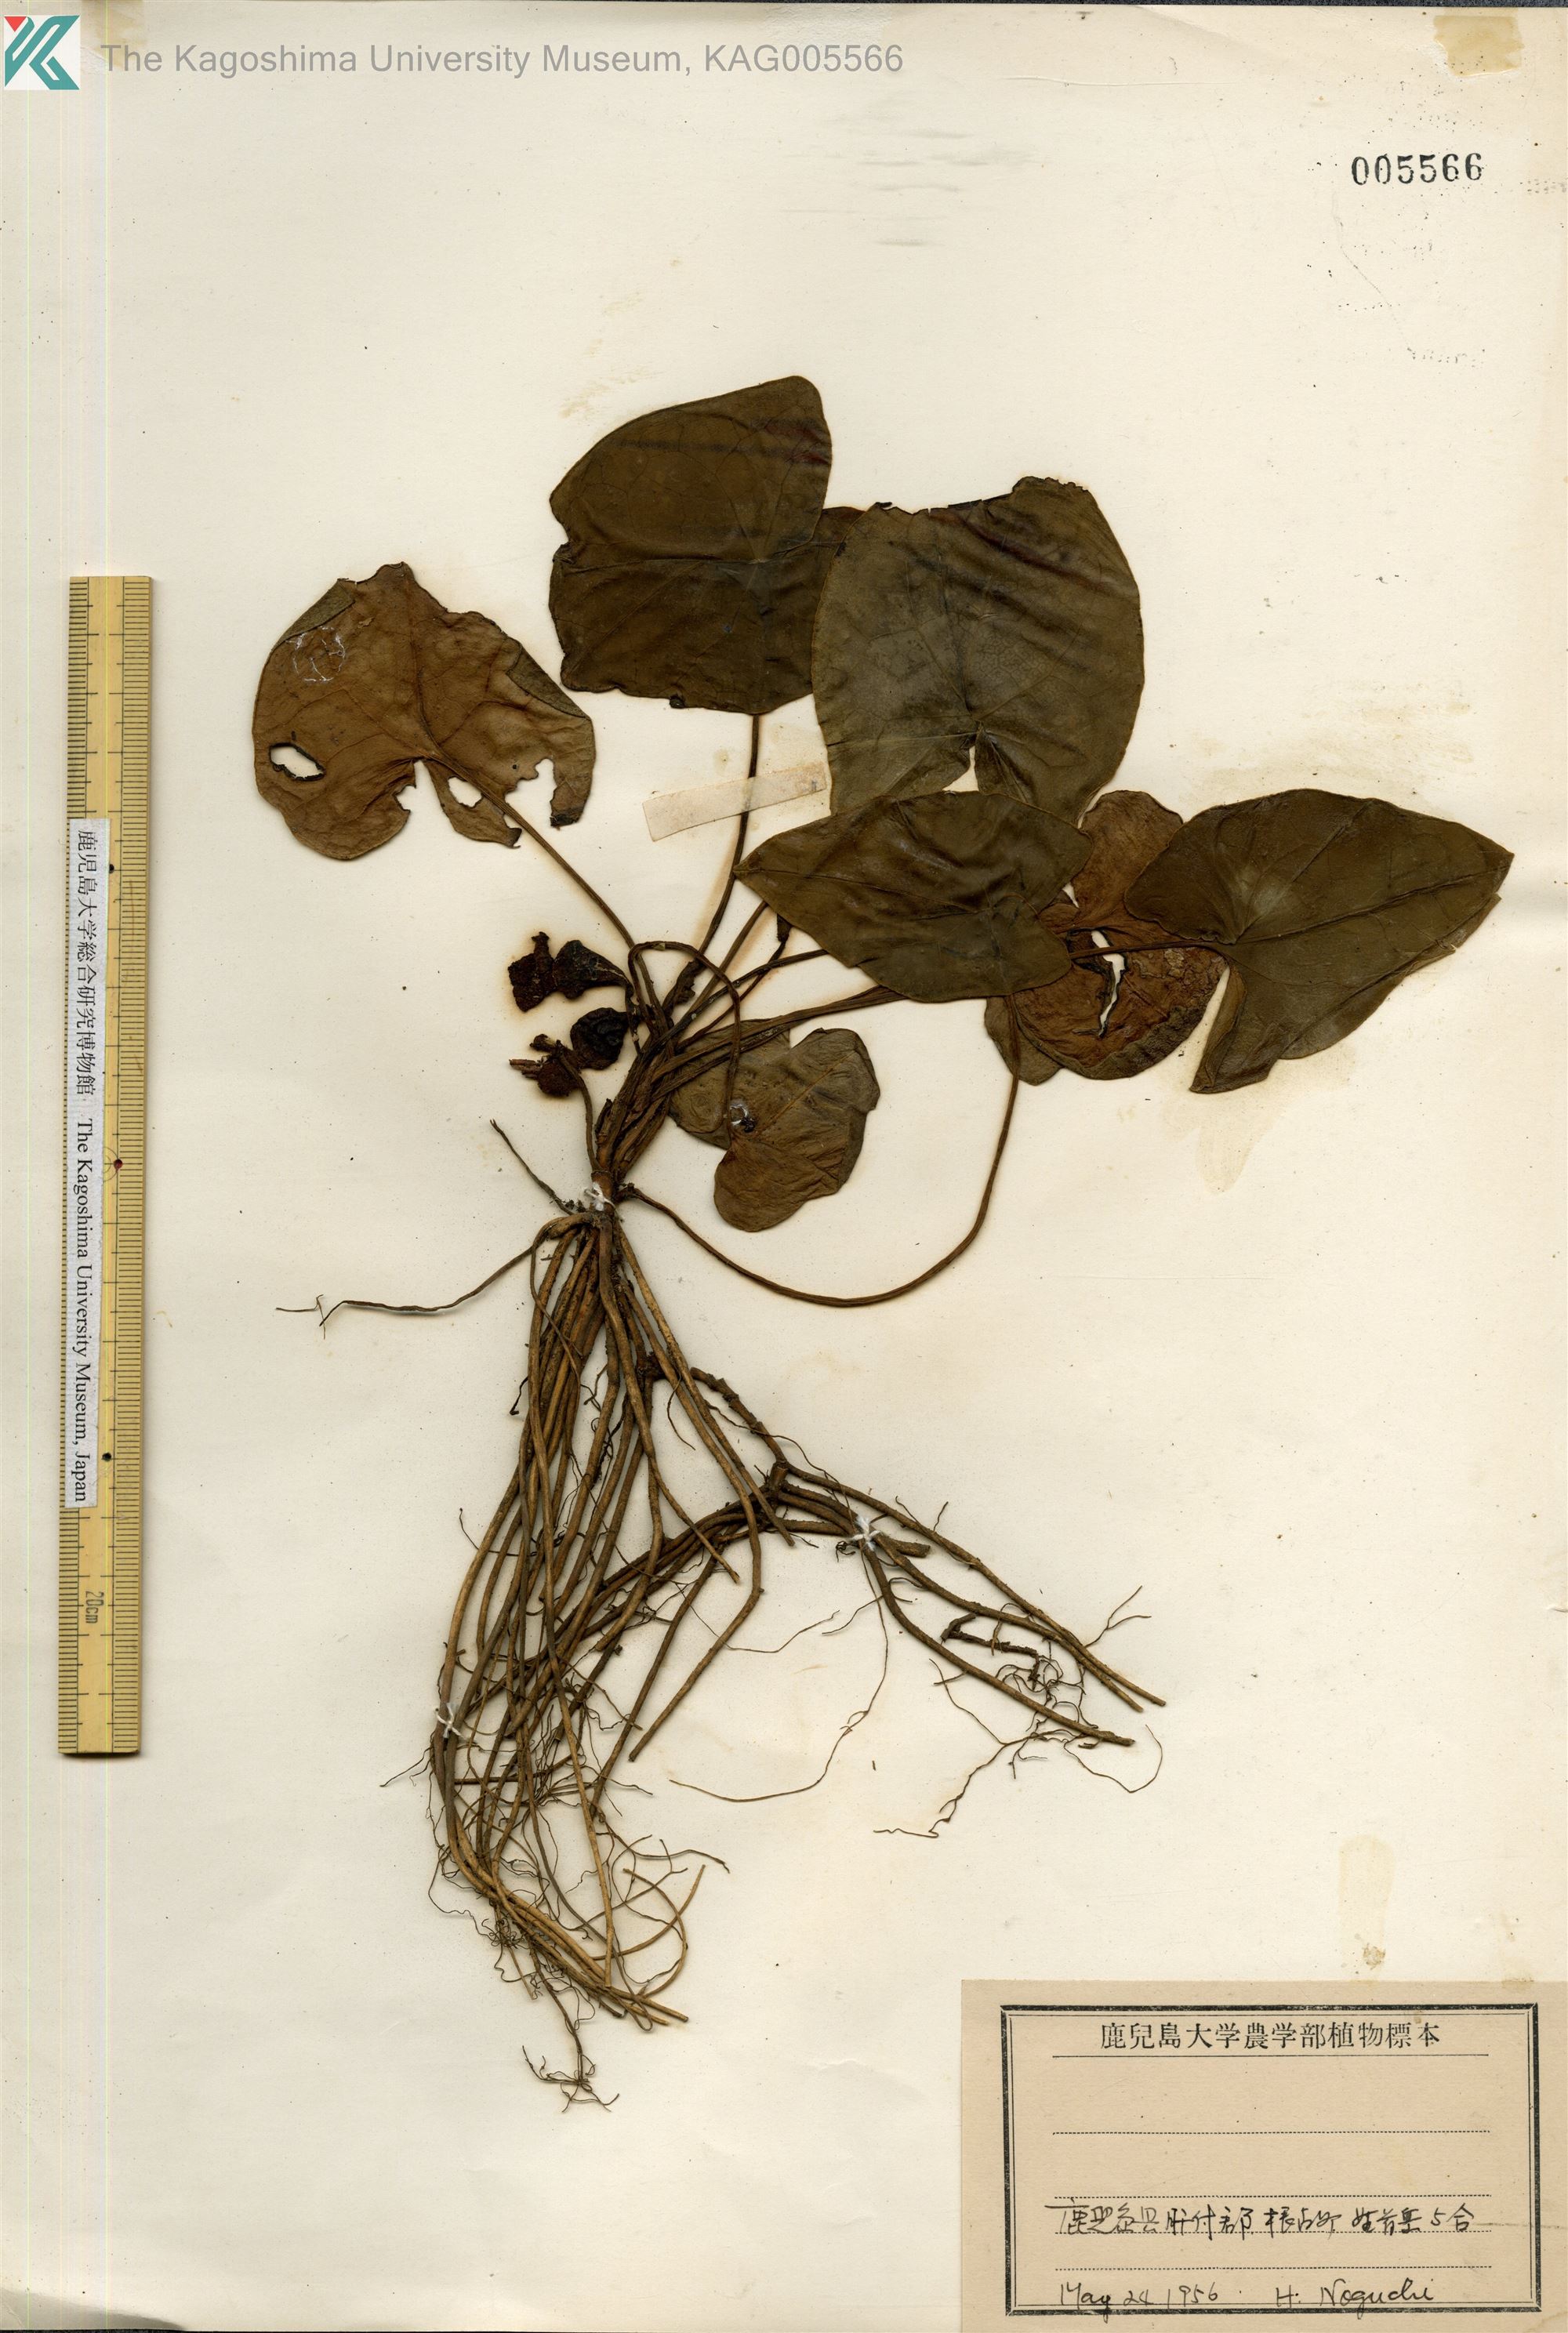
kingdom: Plantae
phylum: Tracheophyta
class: Magnoliopsida
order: Piperales
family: Aristolochiaceae
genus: Asarum
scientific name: Asarum hexalobum
